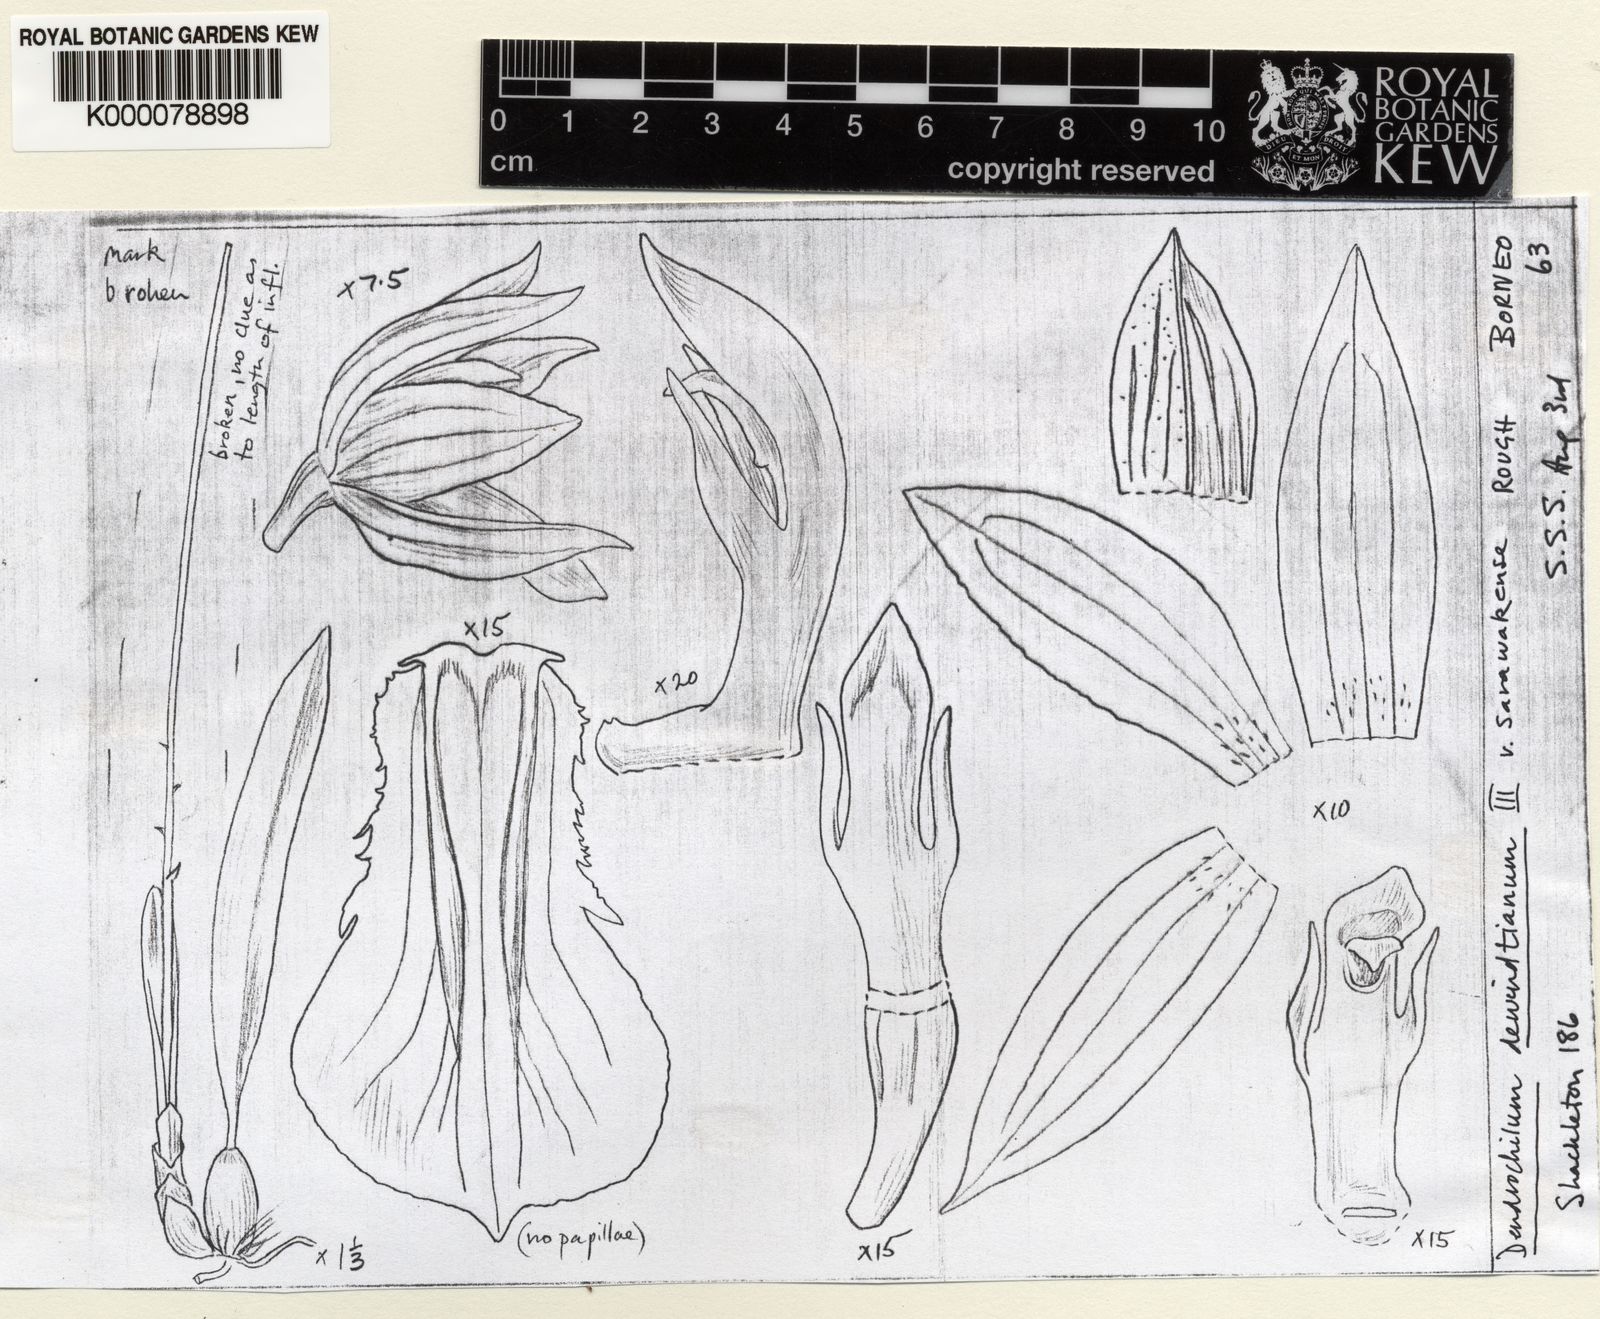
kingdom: Plantae
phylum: Tracheophyta
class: Liliopsida
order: Asparagales
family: Orchidaceae
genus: Coelogyne
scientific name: Coelogyne dewindtiana
